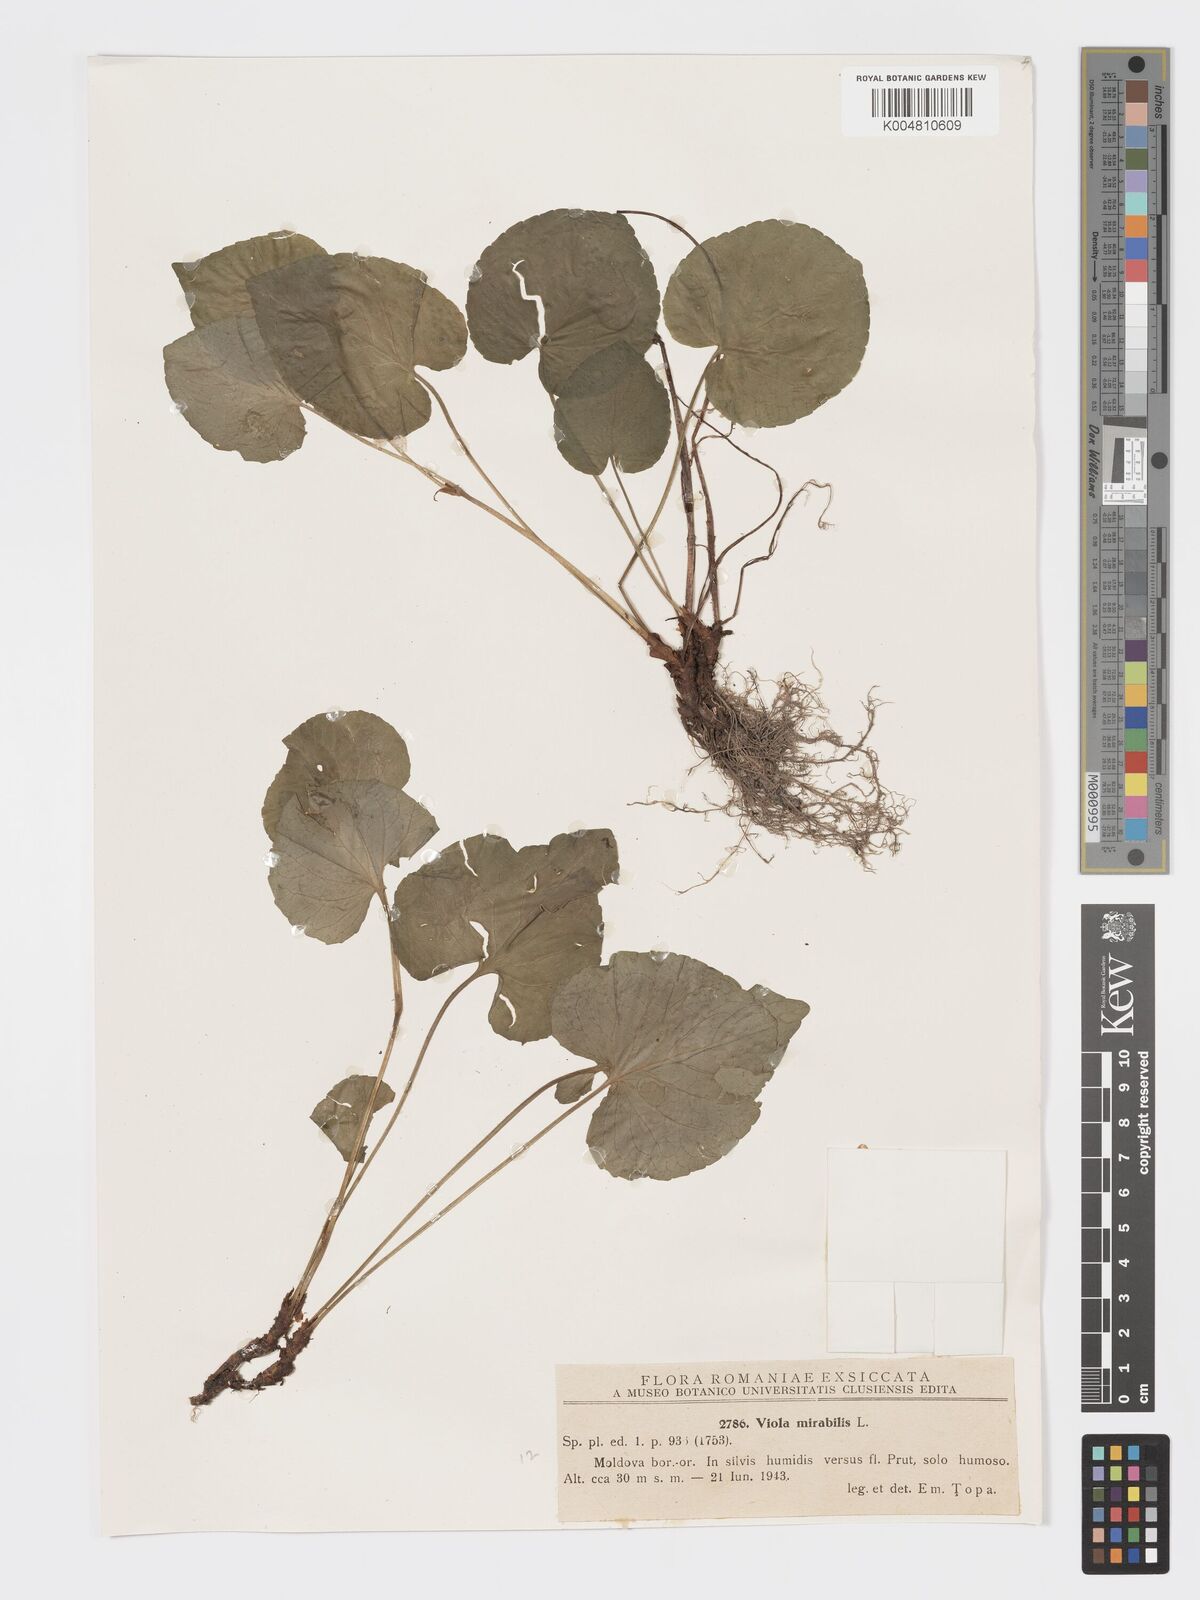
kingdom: Plantae
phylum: Tracheophyta
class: Magnoliopsida
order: Malpighiales
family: Violaceae
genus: Viola
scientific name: Viola mirabilis
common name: Wonder violet
